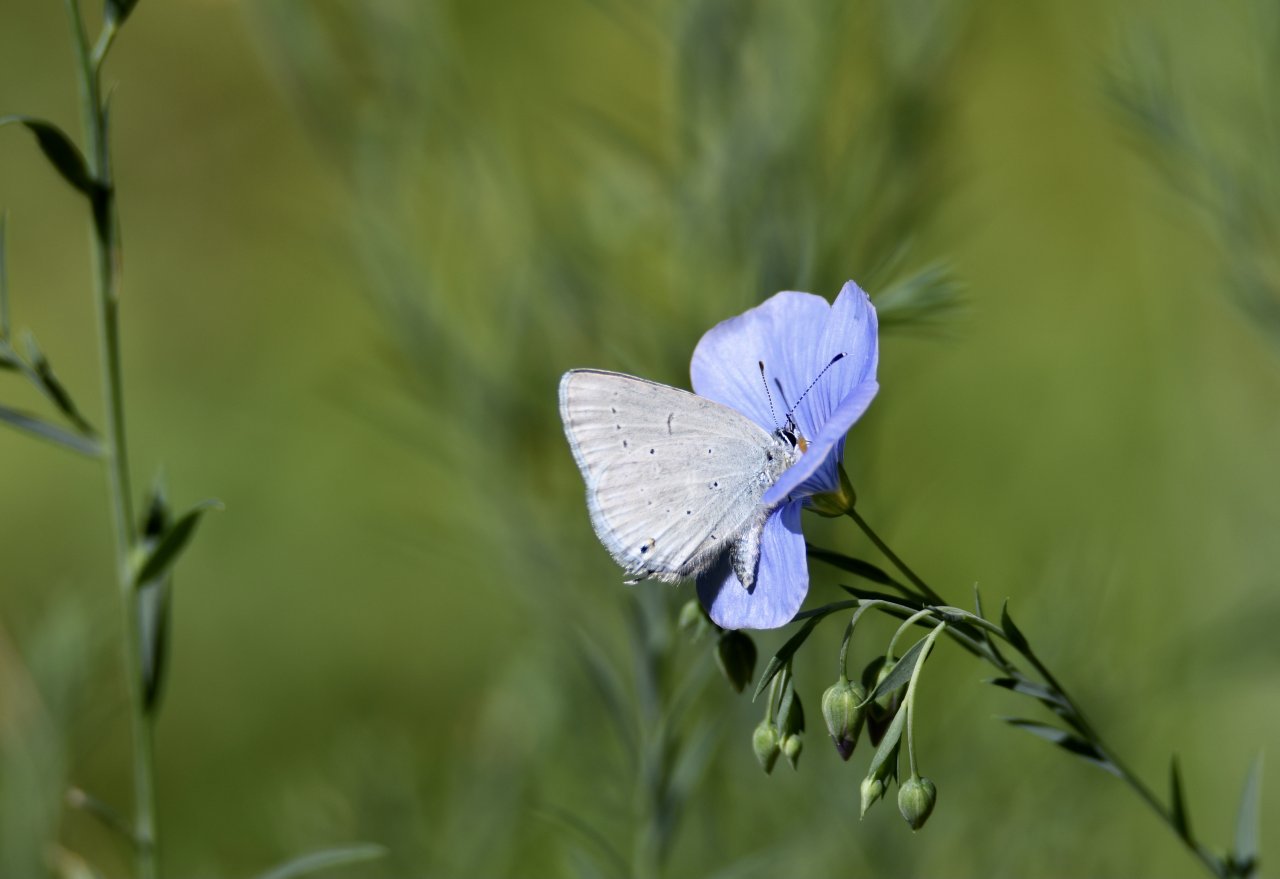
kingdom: Animalia
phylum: Arthropoda
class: Insecta
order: Lepidoptera
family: Lycaenidae
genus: Elkalyce
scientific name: Elkalyce amyntula
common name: Western Tailed-Blue
